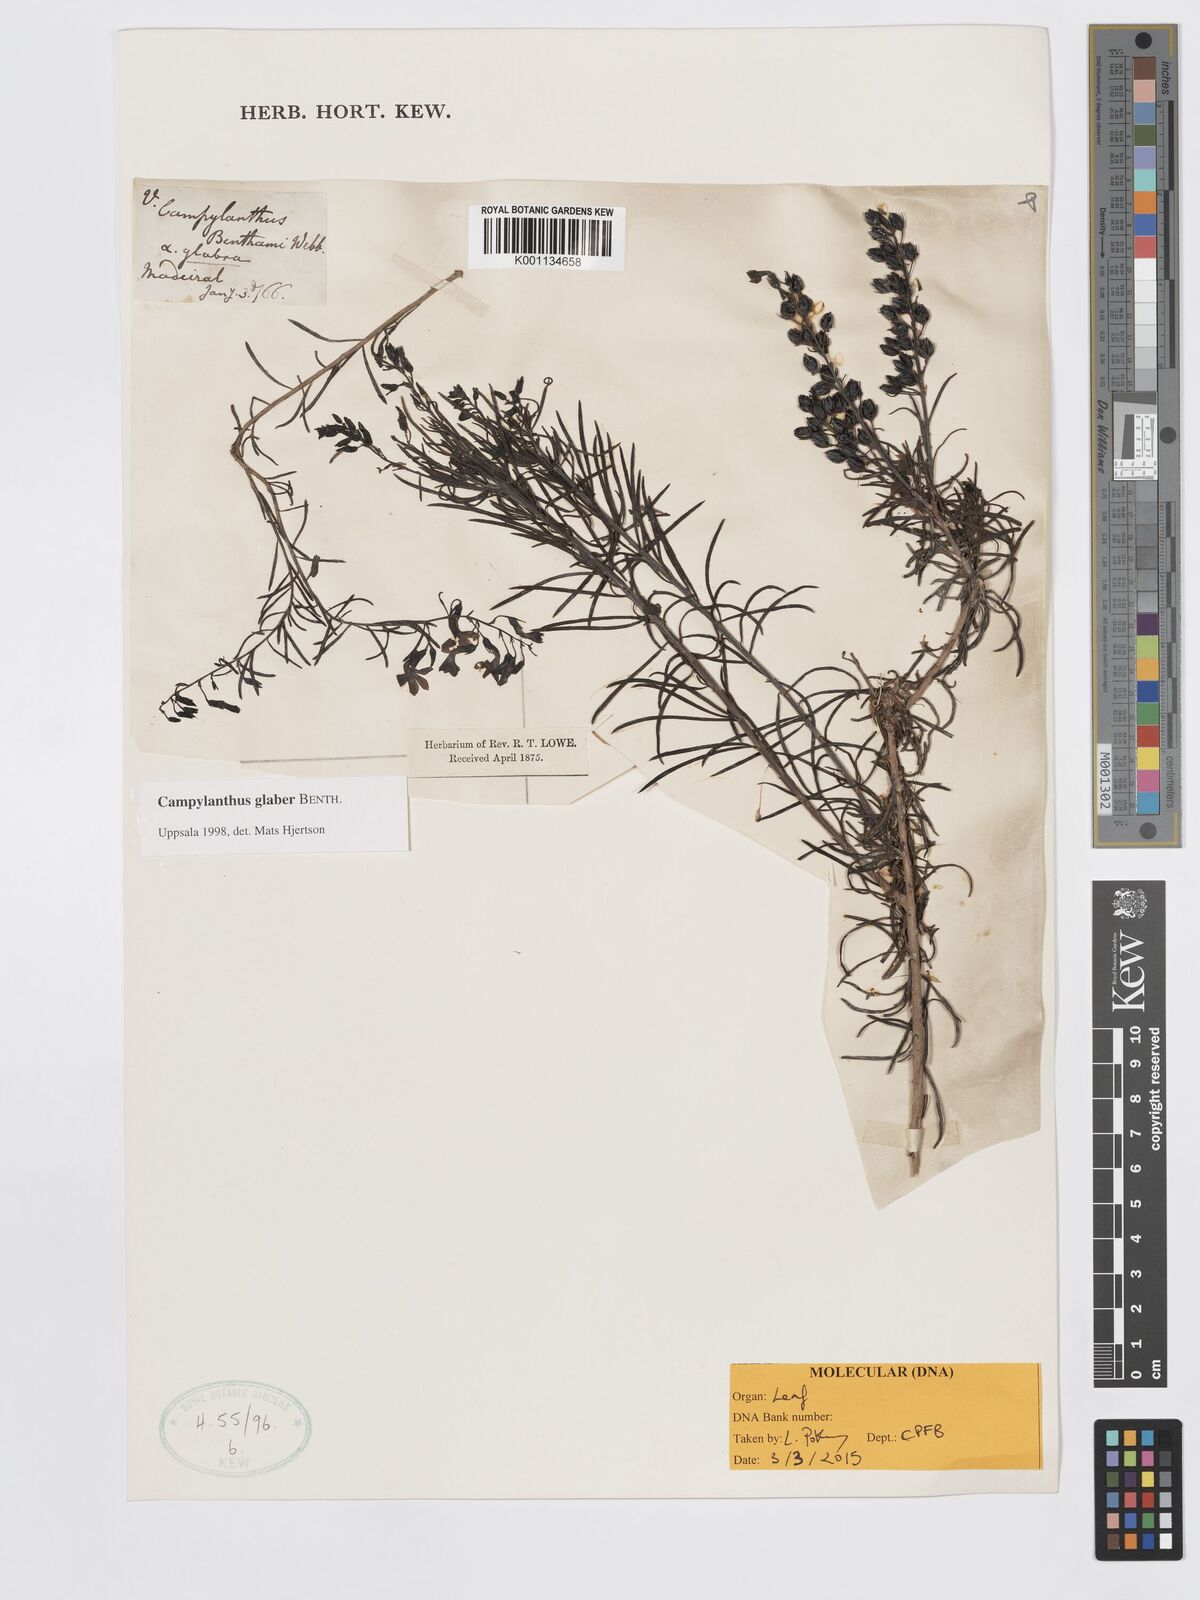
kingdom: Plantae
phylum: Tracheophyta
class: Magnoliopsida
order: Lamiales
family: Plantaginaceae
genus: Campylanthus
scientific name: Campylanthus glaber
